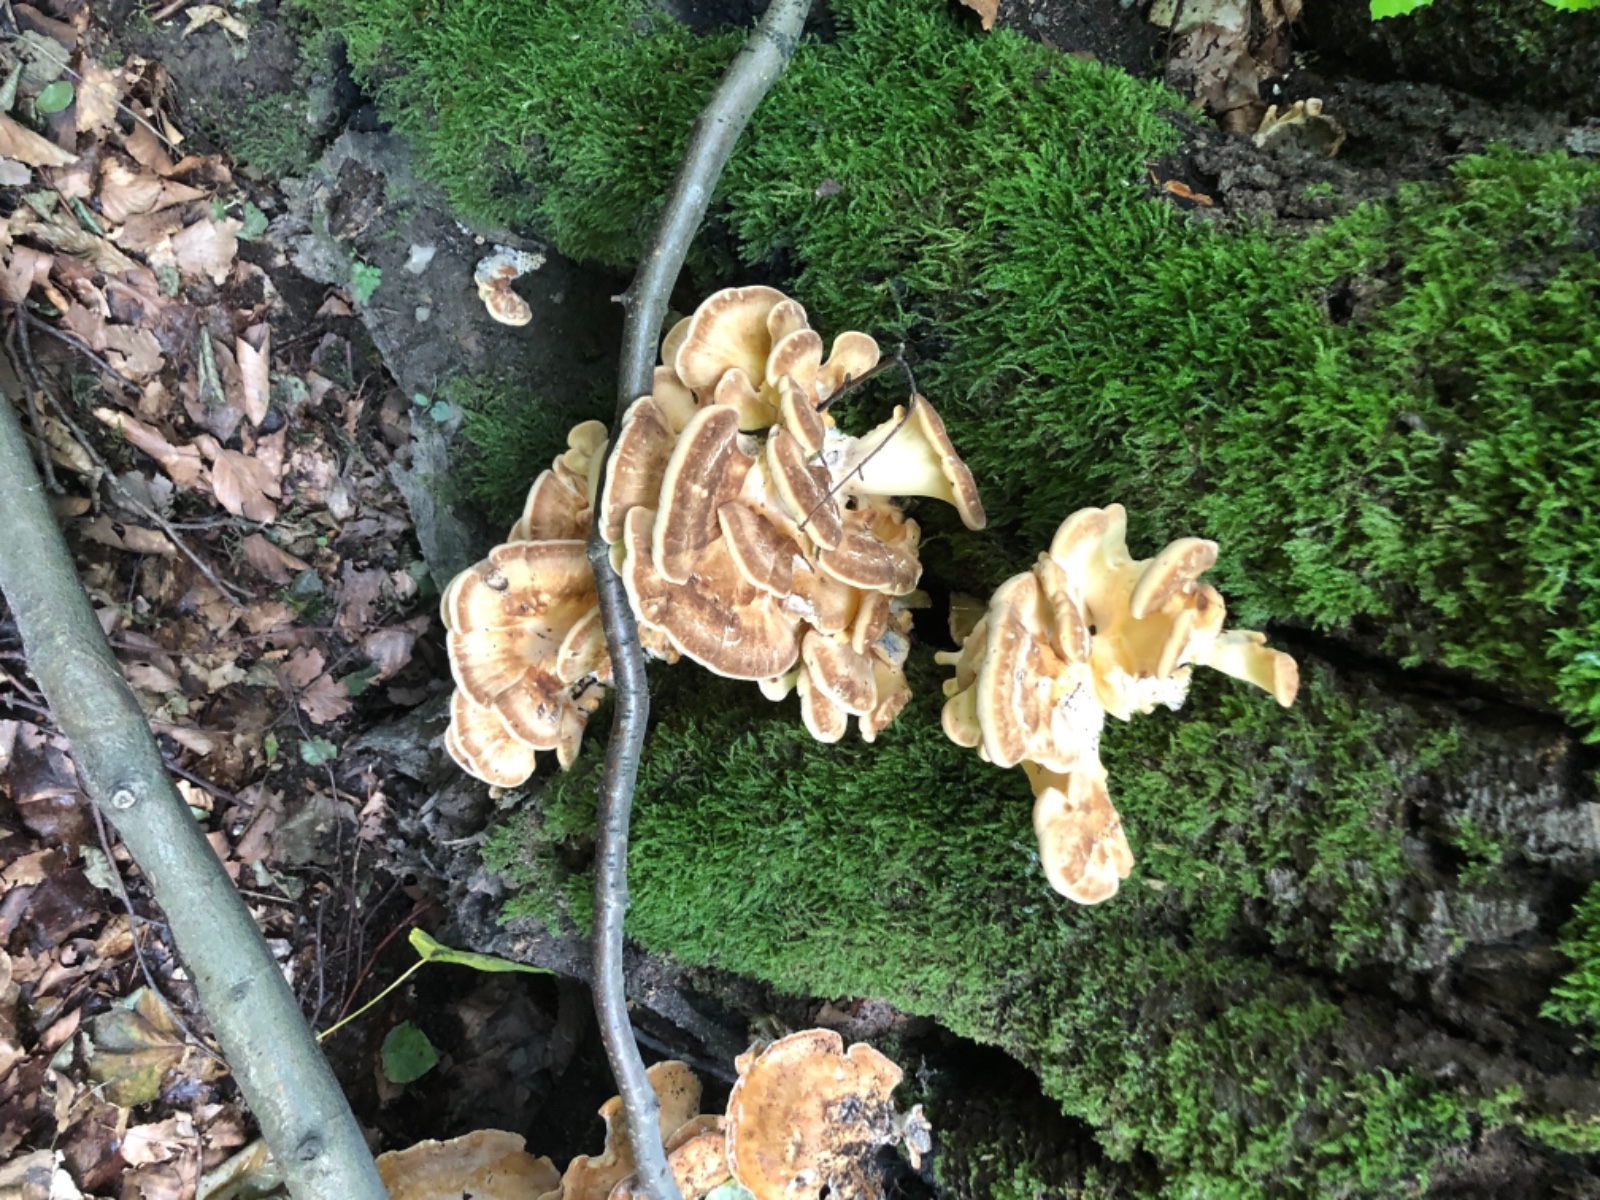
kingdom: Fungi
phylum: Basidiomycota
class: Agaricomycetes
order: Polyporales
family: Meripilaceae
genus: Meripilus
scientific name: Meripilus giganteus
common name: kæmpeporesvamp
